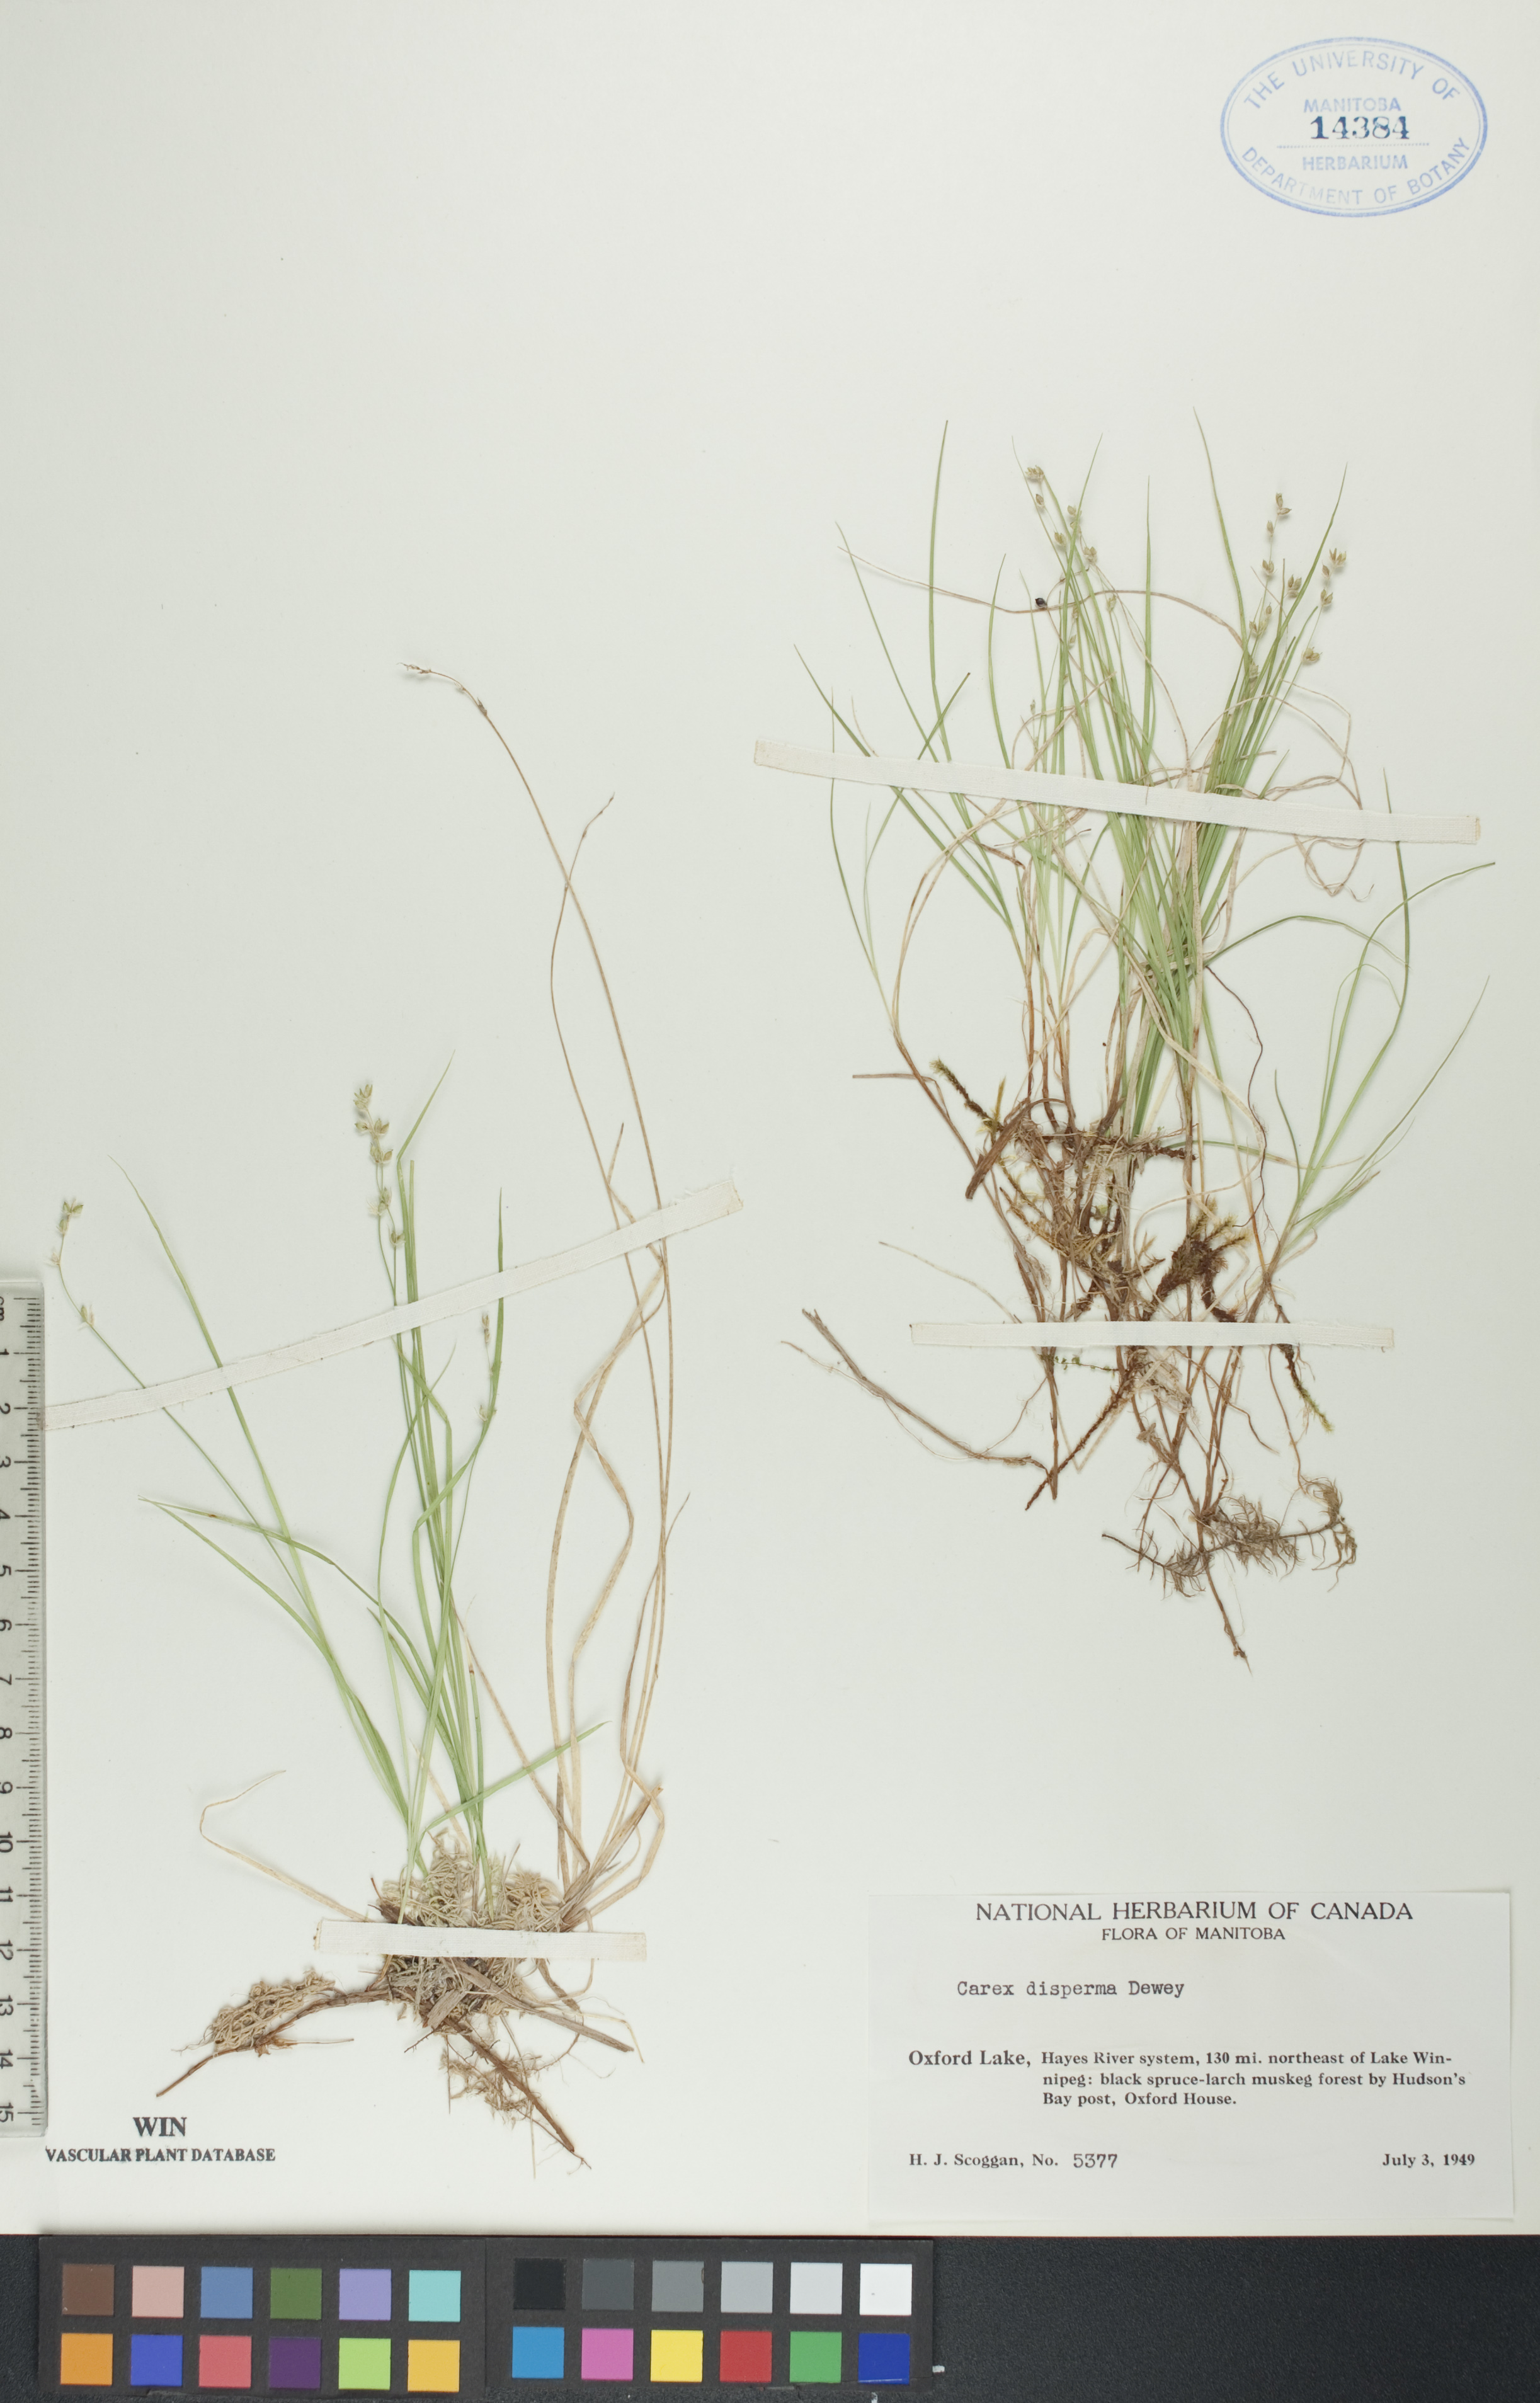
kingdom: Plantae
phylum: Tracheophyta
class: Liliopsida
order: Poales
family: Cyperaceae
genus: Carex
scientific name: Carex disperma
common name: Short-leaved sedge
